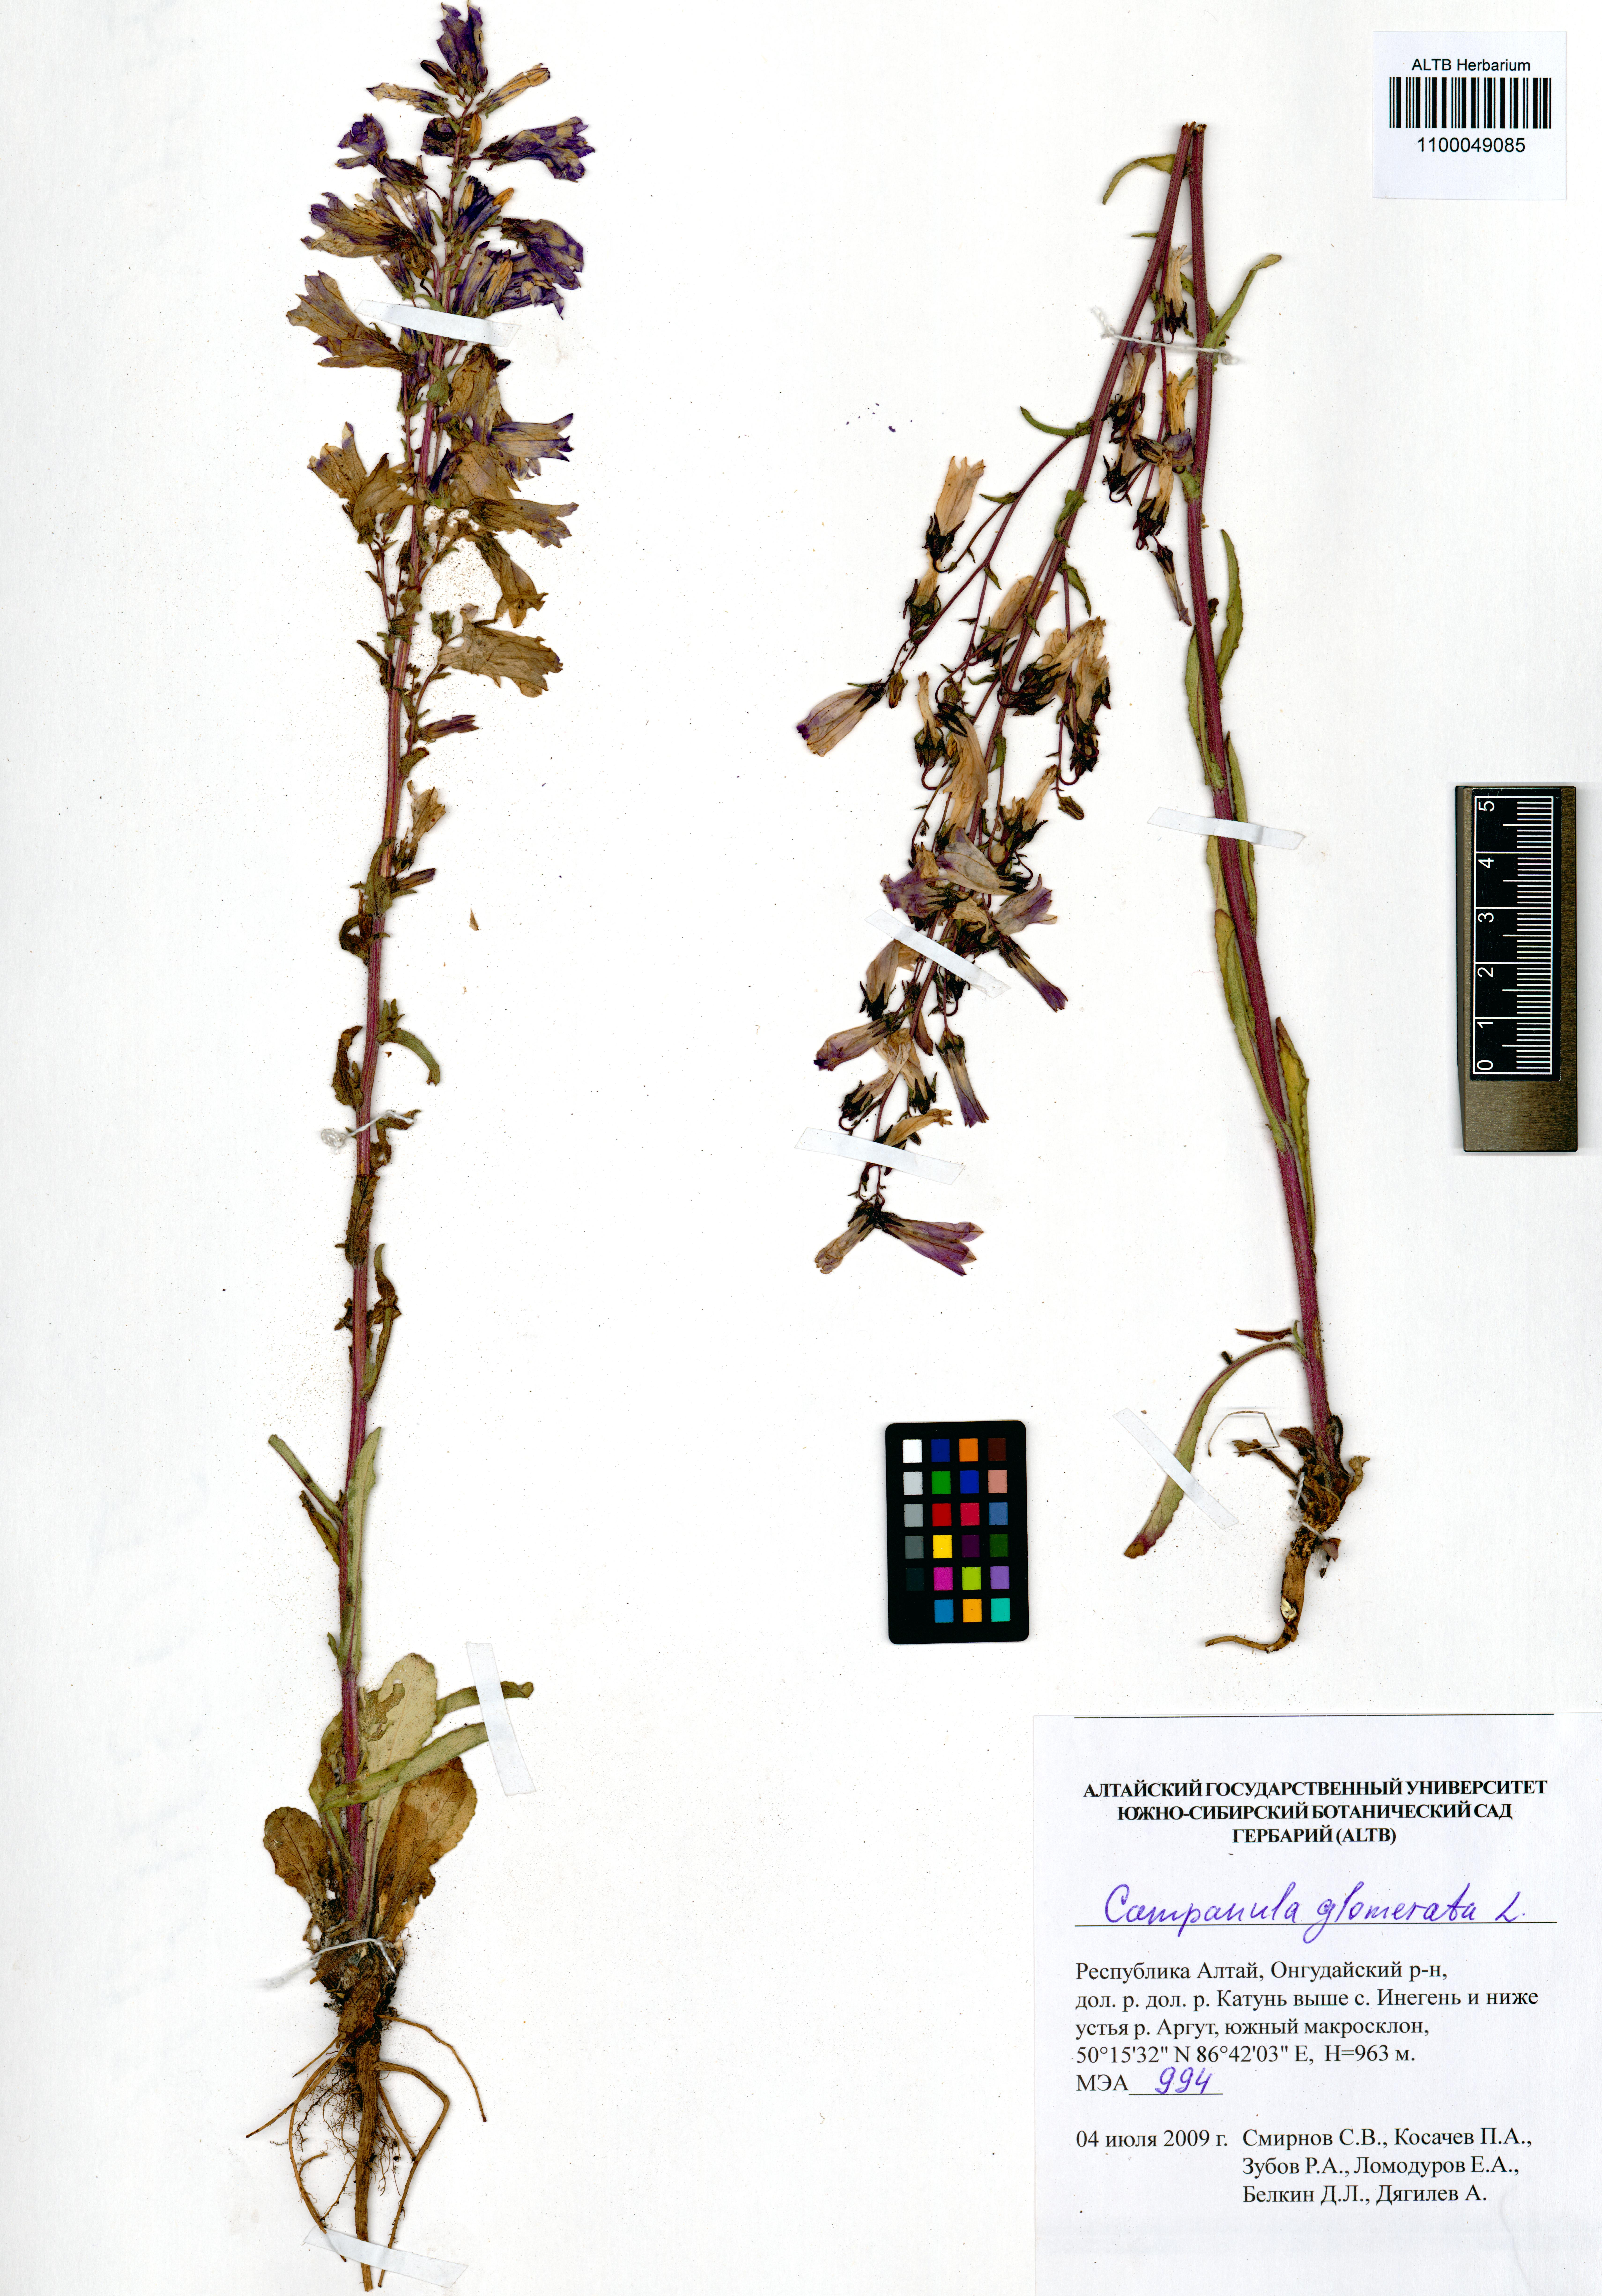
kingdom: Plantae
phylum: Tracheophyta
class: Magnoliopsida
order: Asterales
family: Campanulaceae
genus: Campanula
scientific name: Campanula sibirica
